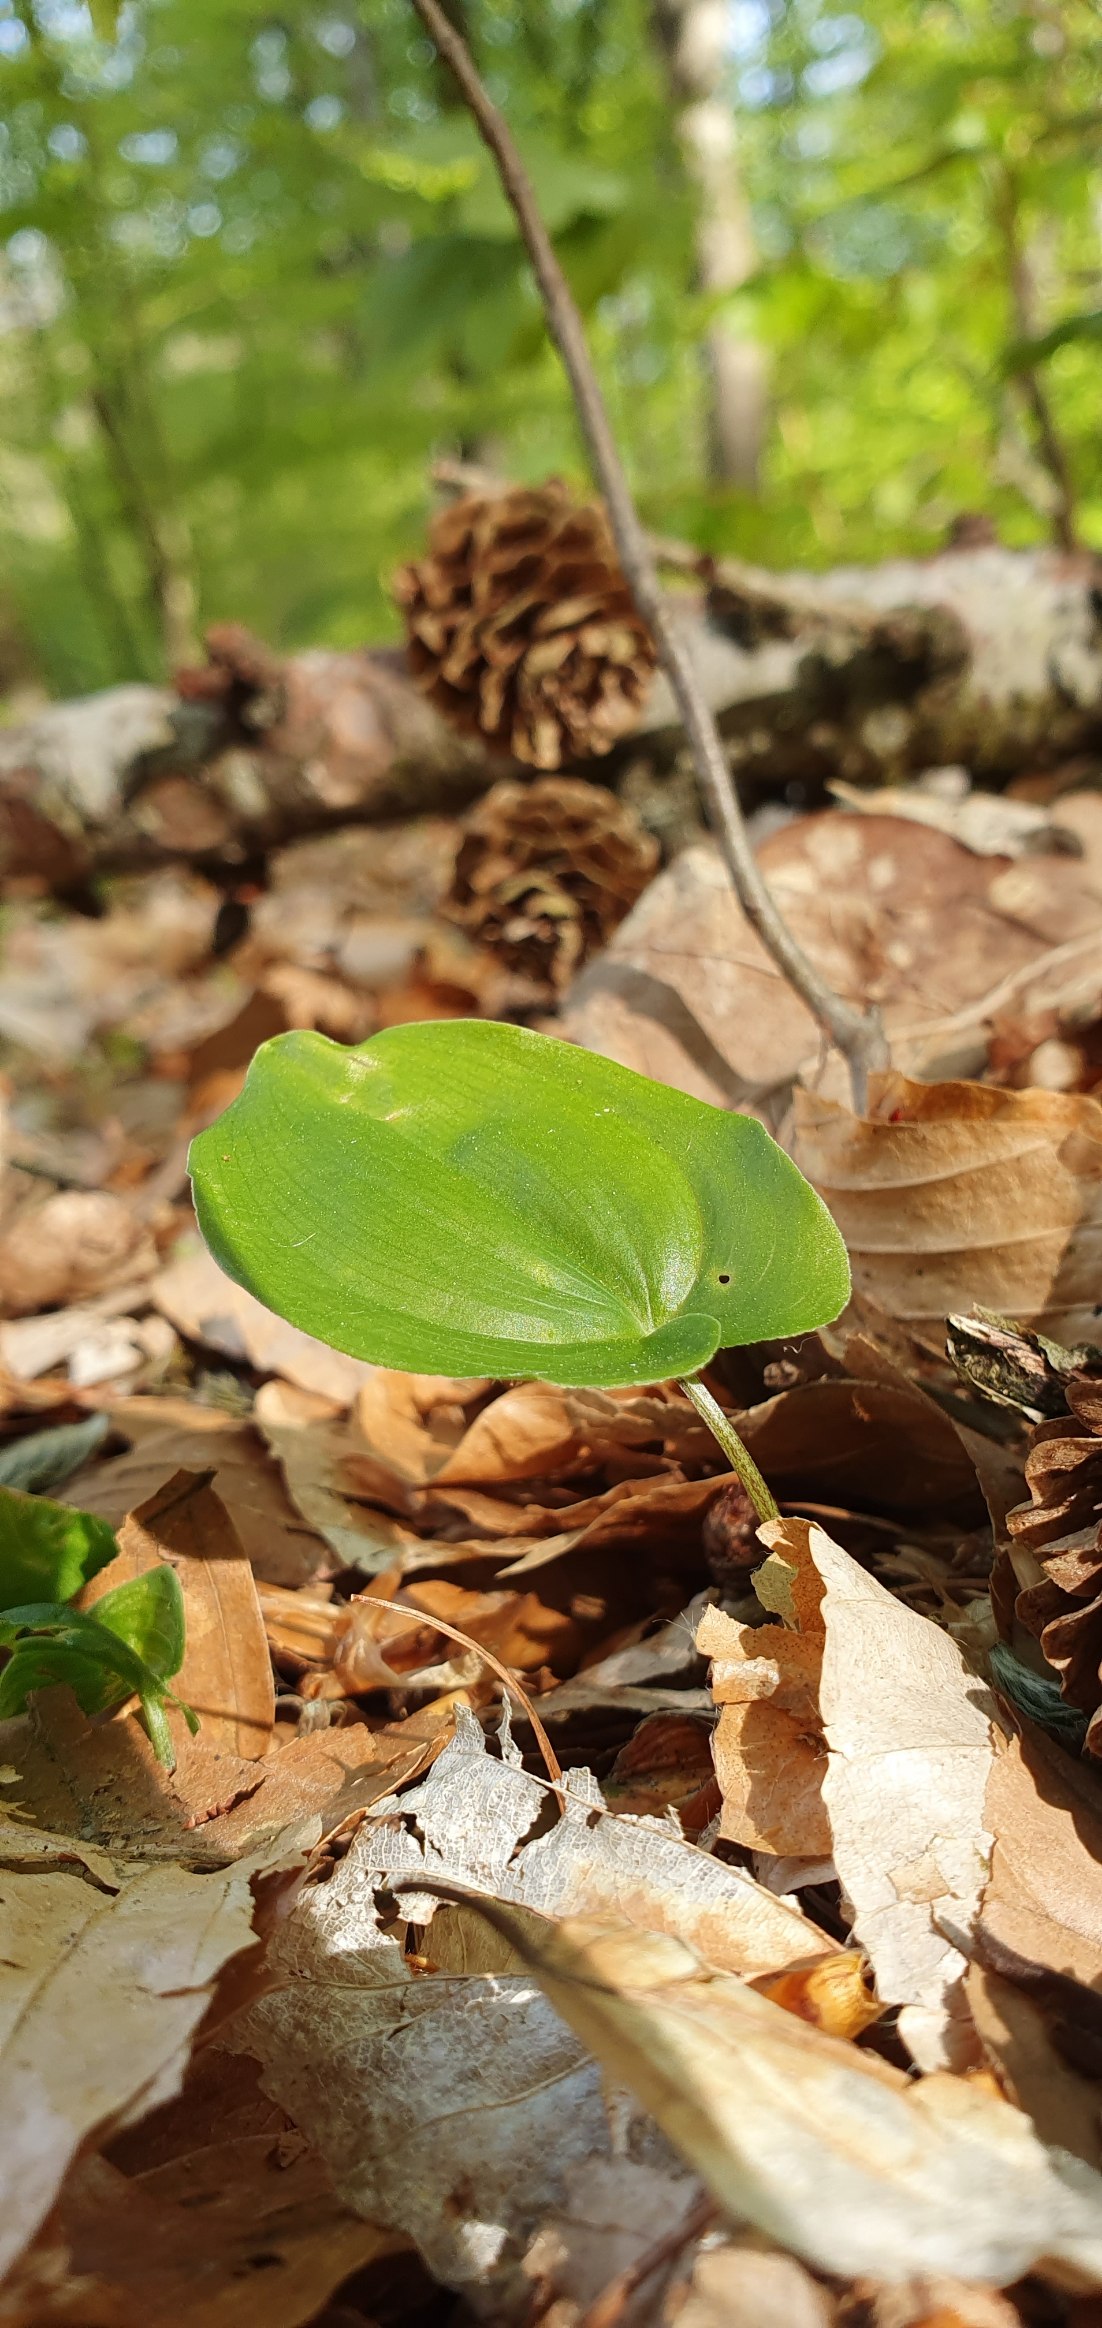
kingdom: Plantae
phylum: Tracheophyta
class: Liliopsida
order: Asparagales
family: Asparagaceae
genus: Maianthemum
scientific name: Maianthemum bifolium
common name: Majblomst
